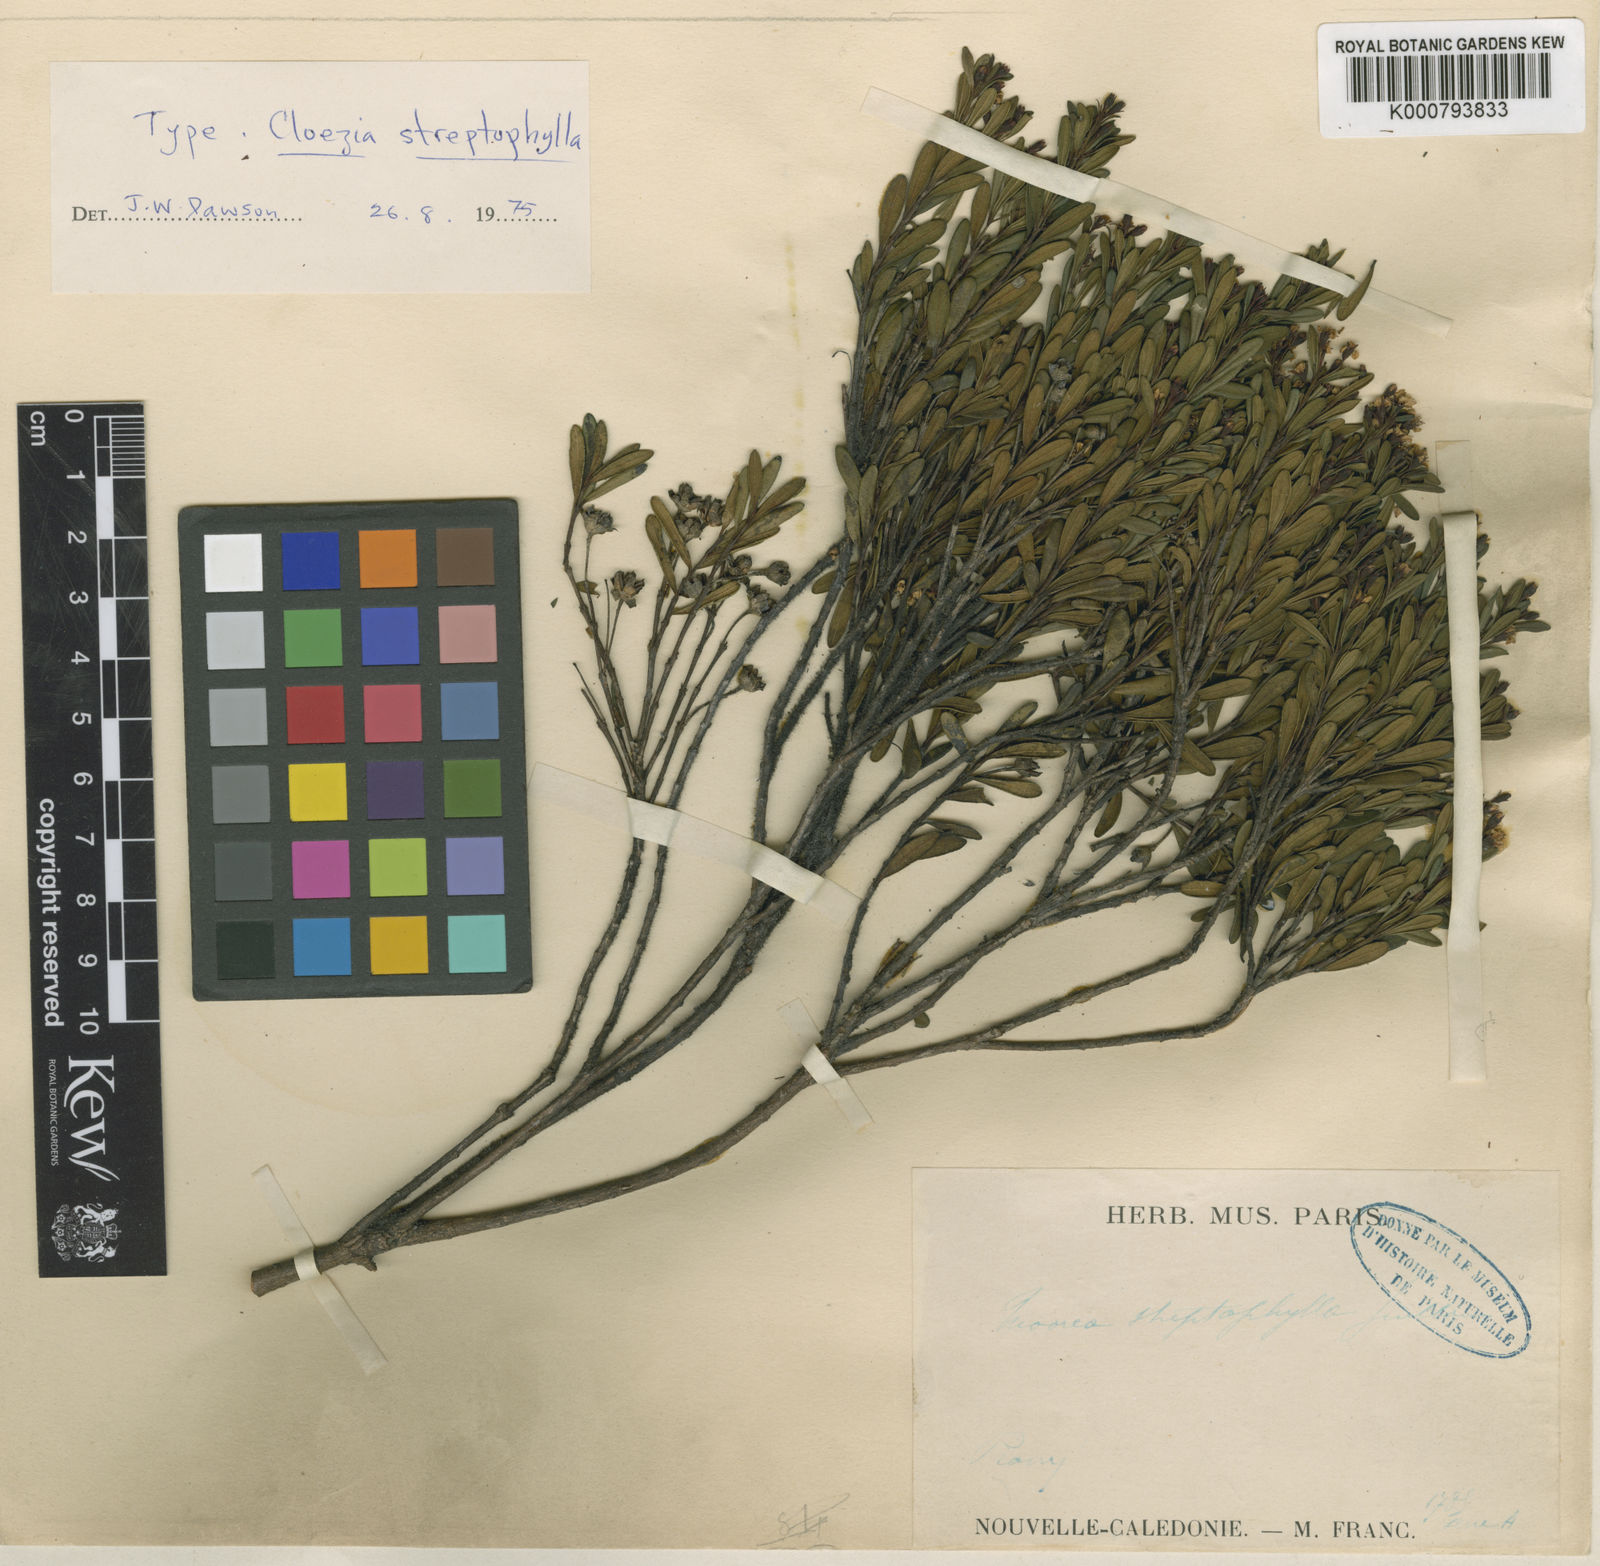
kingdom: Plantae
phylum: Tracheophyta
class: Magnoliopsida
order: Myrtales
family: Myrtaceae
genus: Cloezia
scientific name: Cloezia
